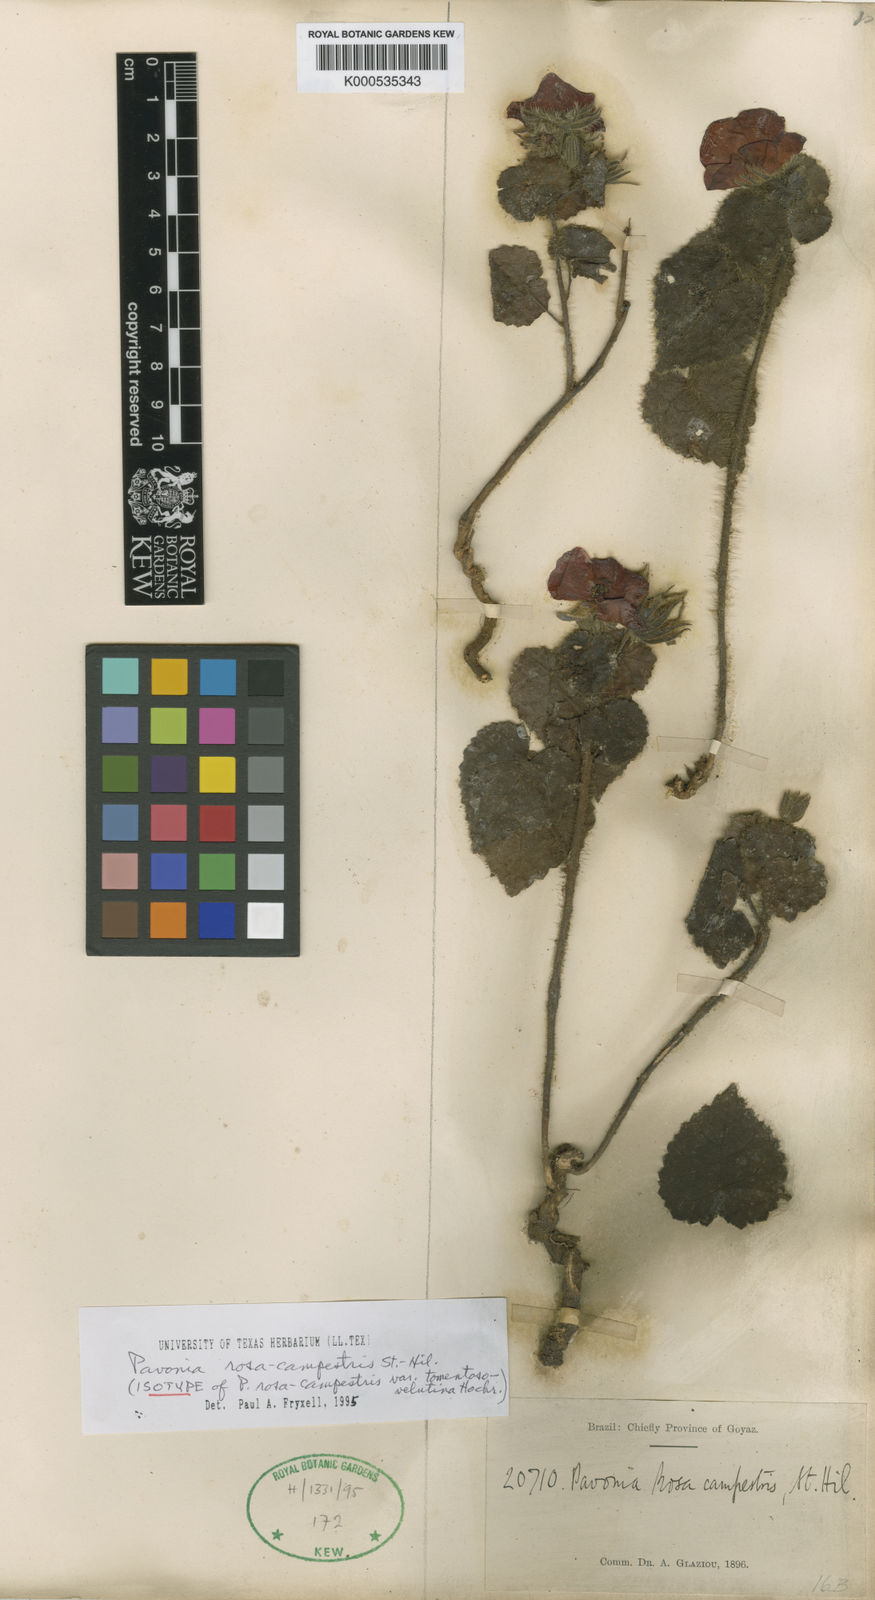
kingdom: Plantae
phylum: Tracheophyta
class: Magnoliopsida
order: Malvales
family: Malvaceae
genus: Pavonia
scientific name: Pavonia rosa-campestris
